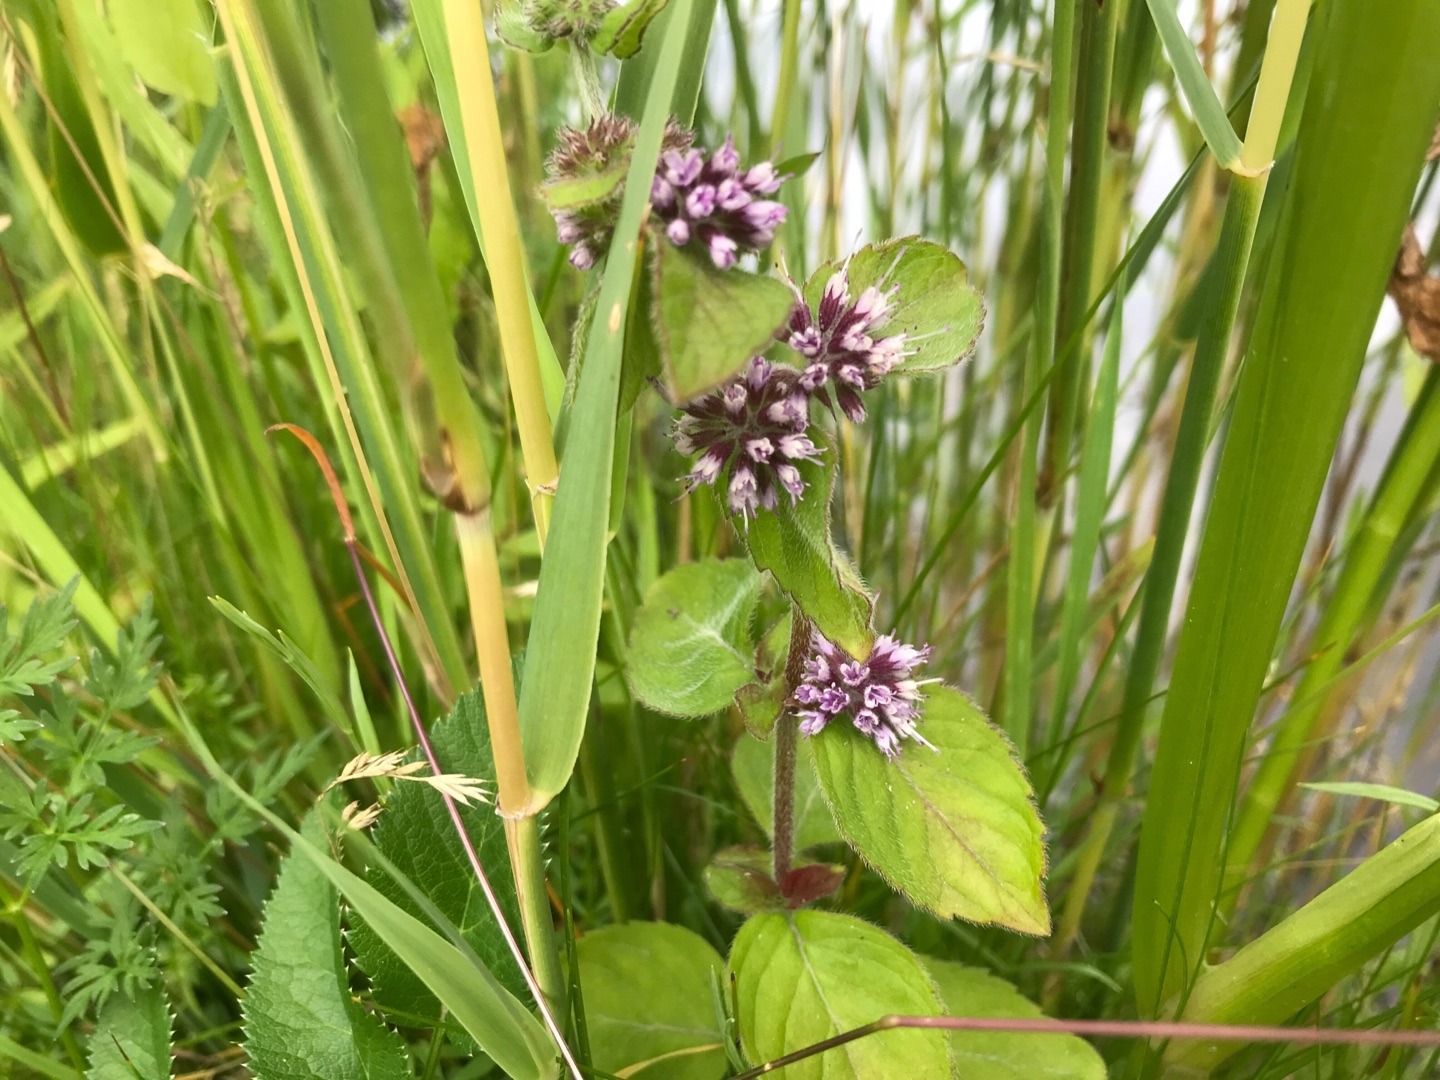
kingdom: Plantae
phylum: Tracheophyta
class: Magnoliopsida
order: Lamiales
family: Lamiaceae
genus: Mentha
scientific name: Mentha verticillata
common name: Krans-mynte
